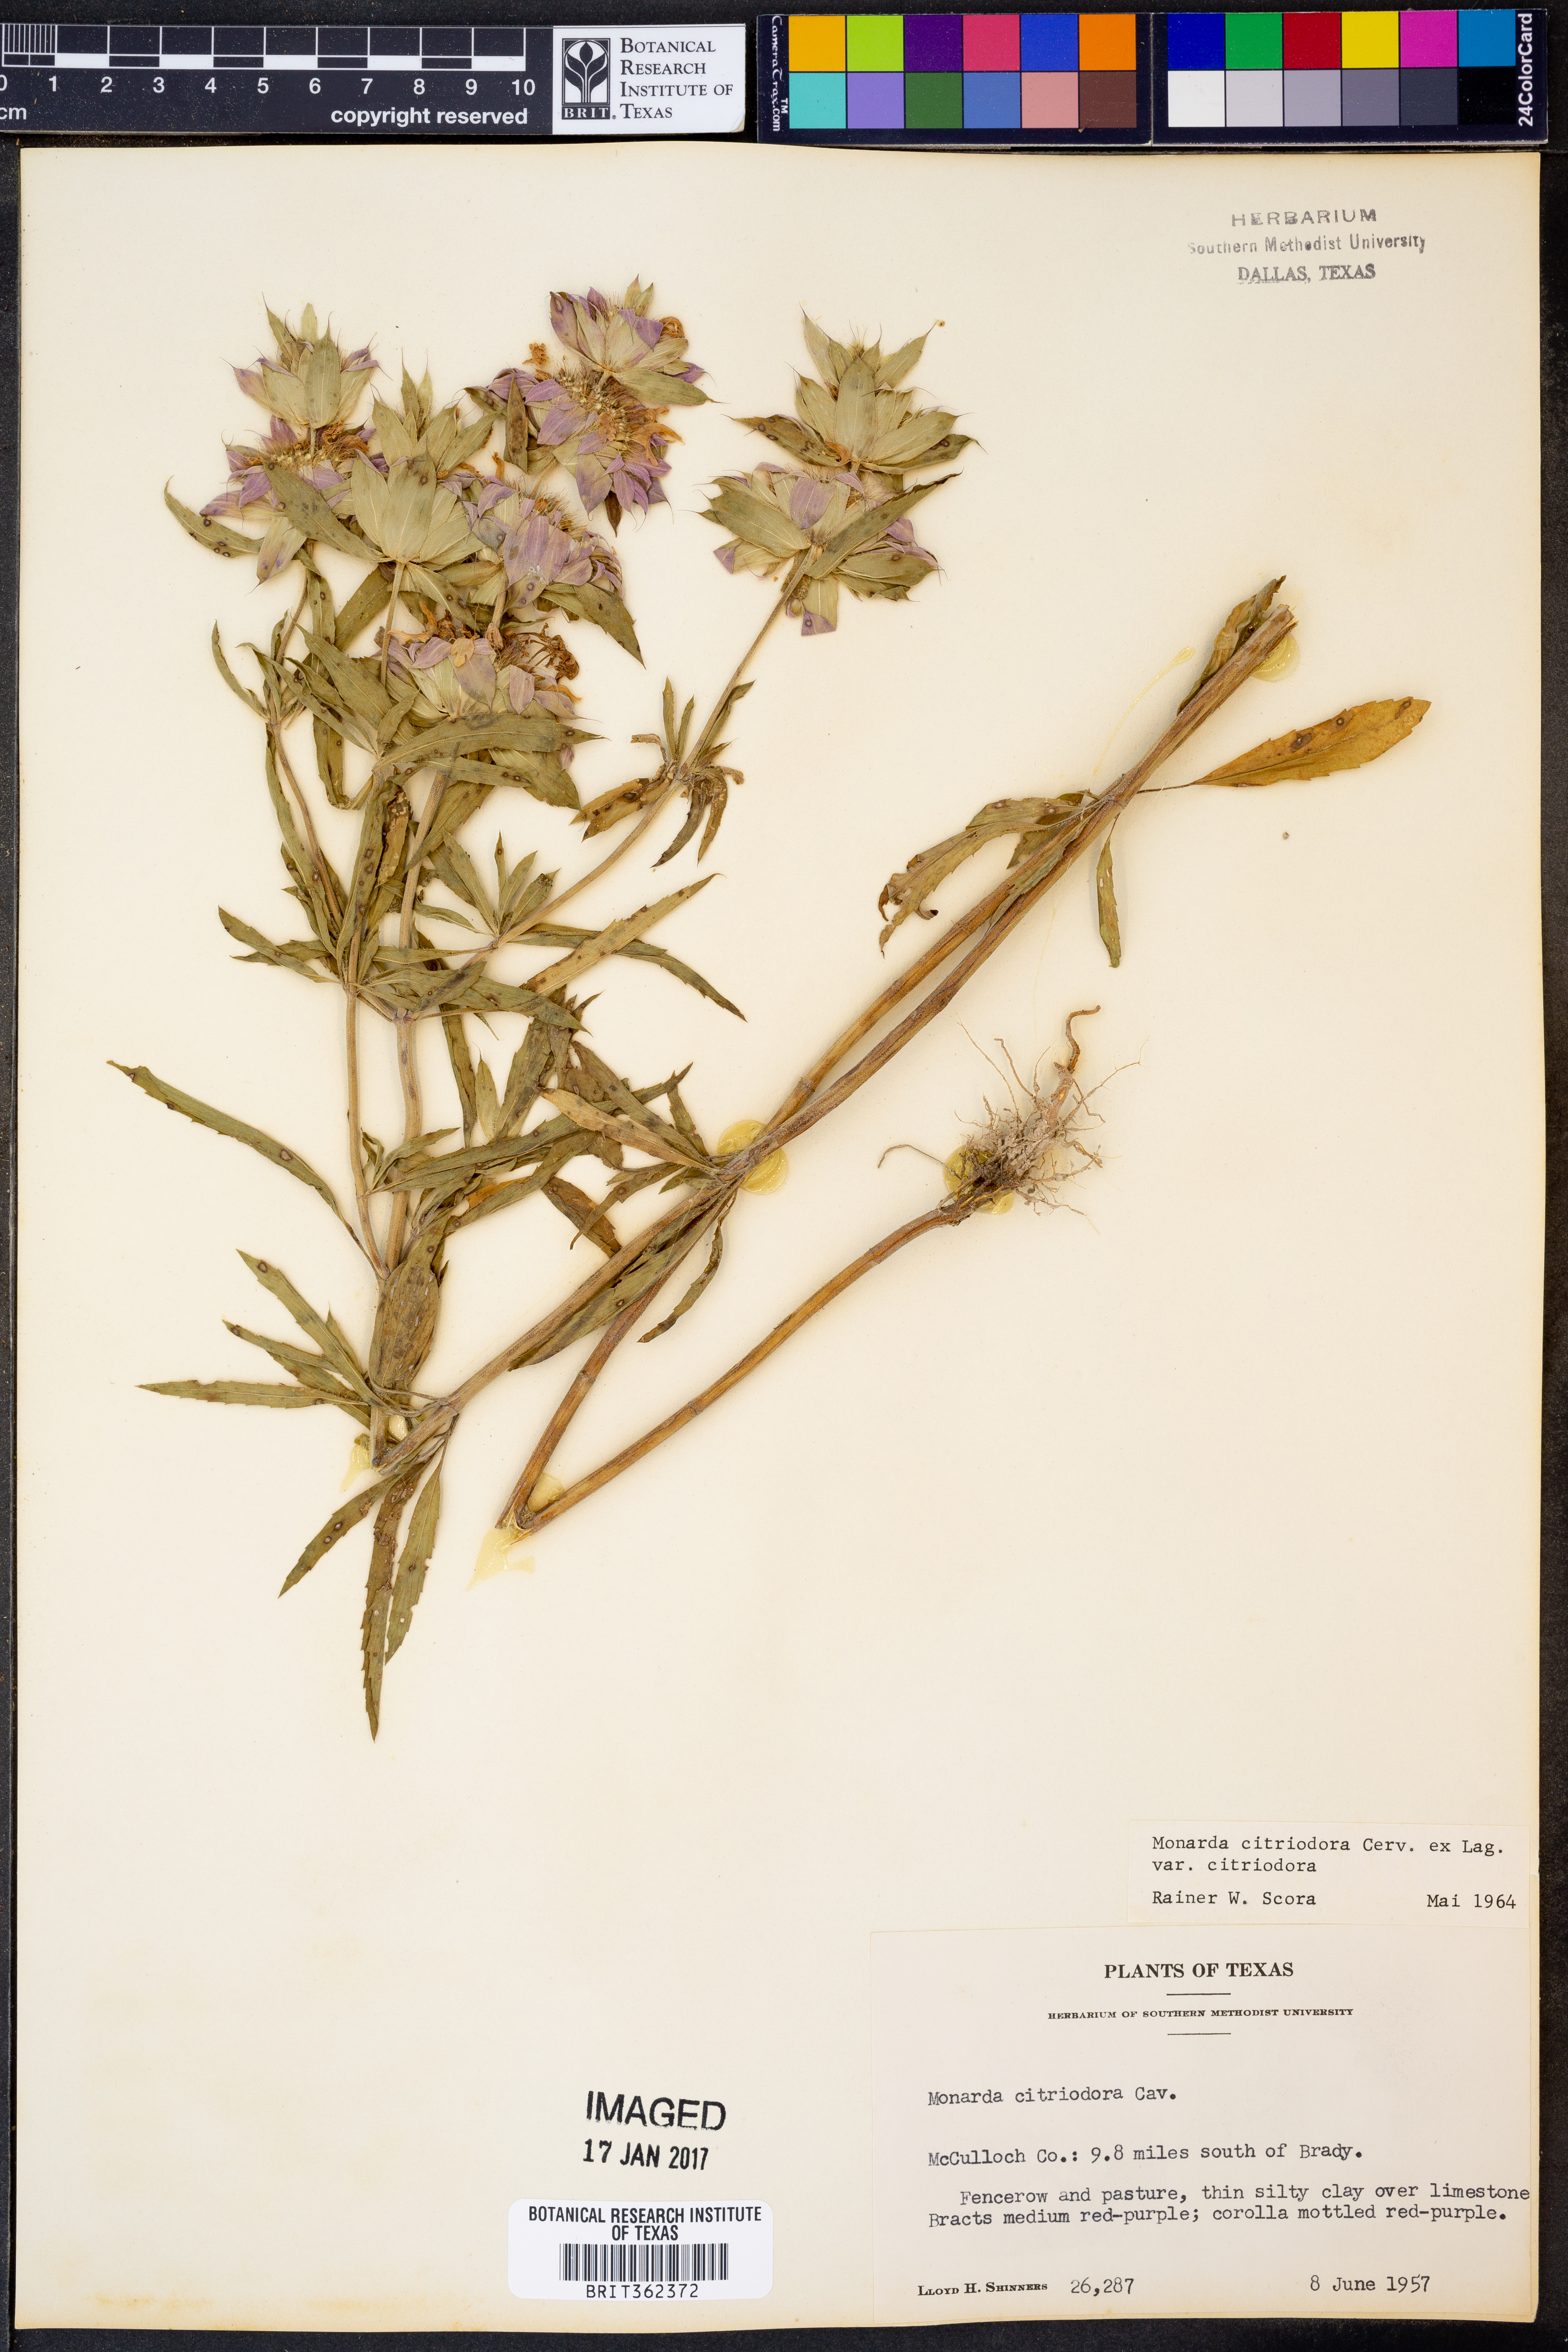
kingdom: Plantae
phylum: Tracheophyta
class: Magnoliopsida
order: Lamiales
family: Lamiaceae
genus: Monarda
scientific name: Monarda citriodora
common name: Lemon beebalm
